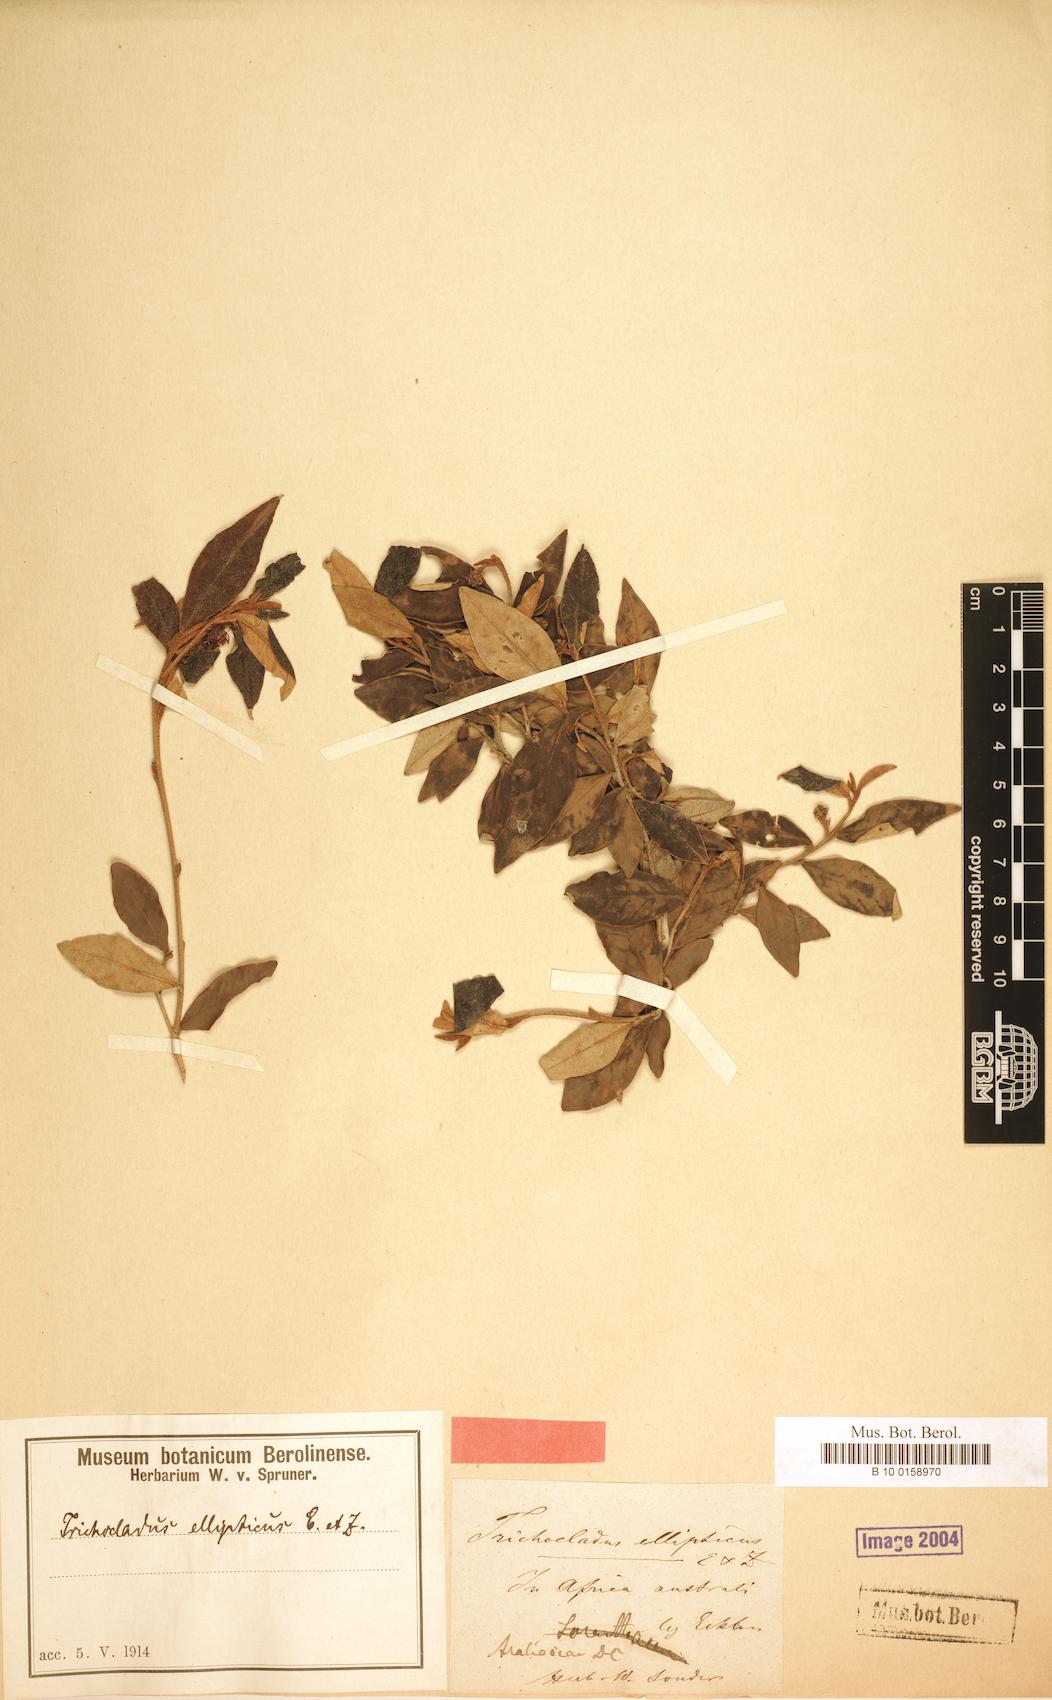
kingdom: Plantae
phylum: Tracheophyta
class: Magnoliopsida
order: Saxifragales
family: Hamamelidaceae
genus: Trichocladus
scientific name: Trichocladus ellipticus
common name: White witch-hazel
